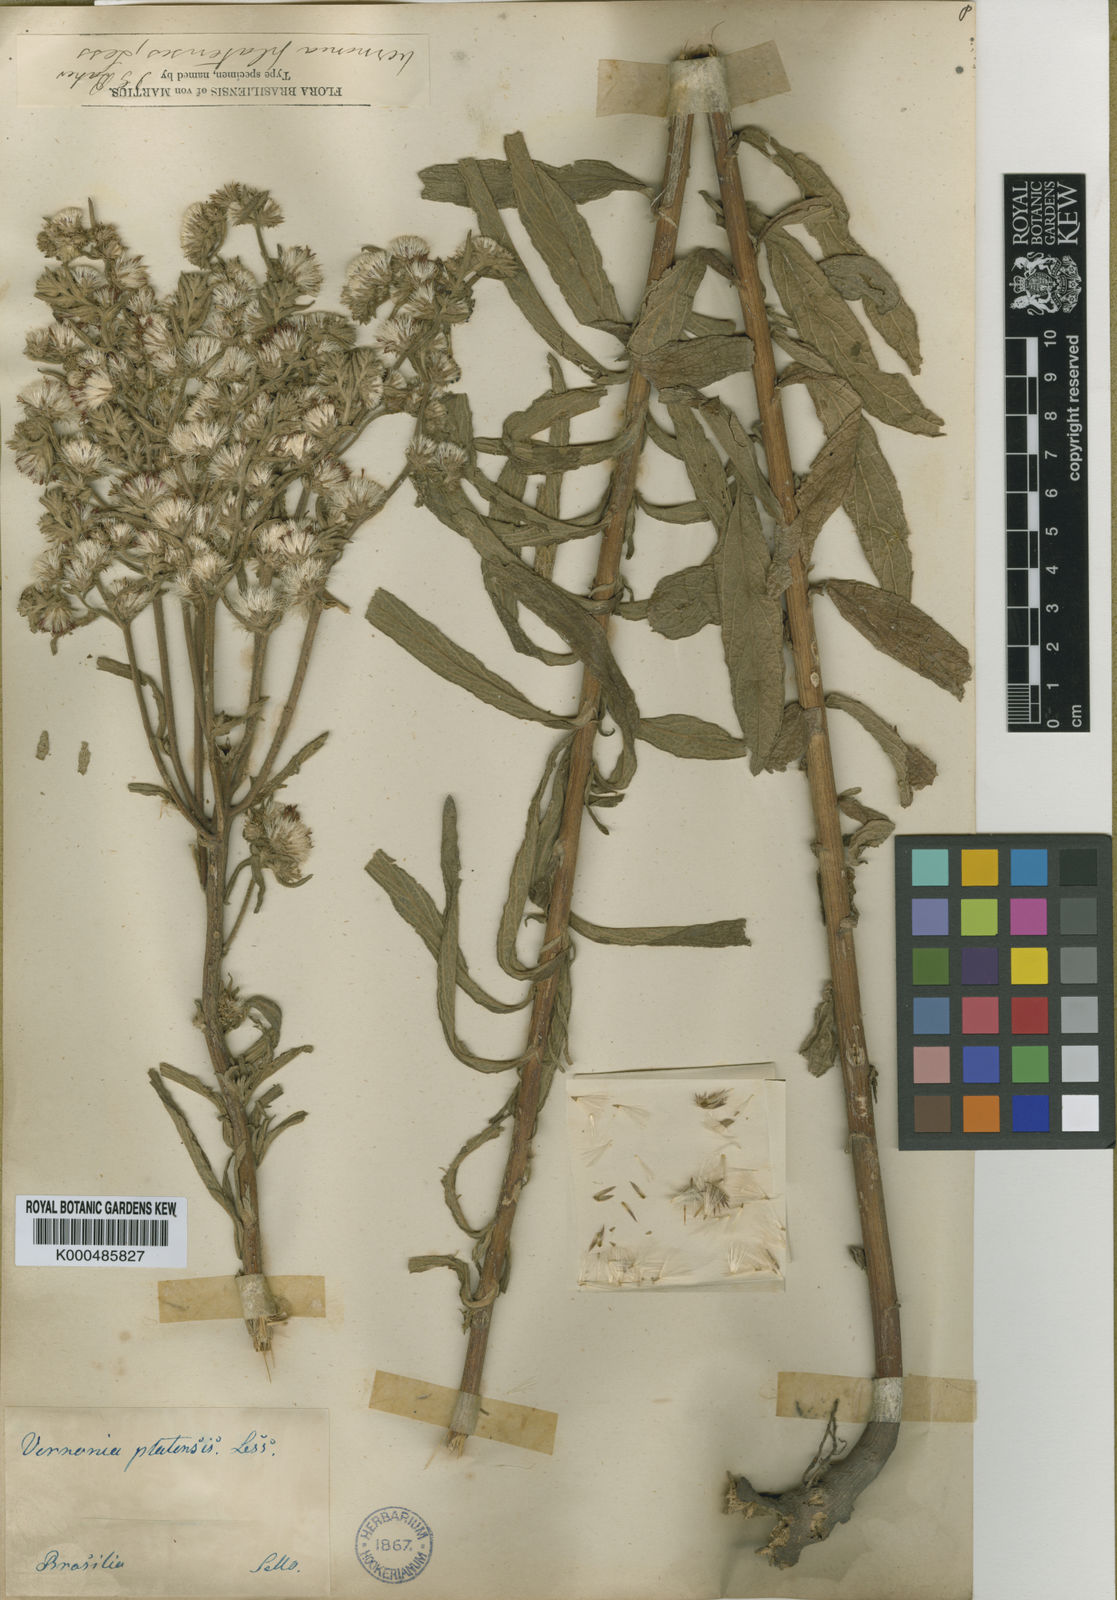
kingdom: Plantae
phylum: Tracheophyta
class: Magnoliopsida
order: Asterales
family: Asteraceae
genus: Chrysolaena
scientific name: Chrysolaena platensis
